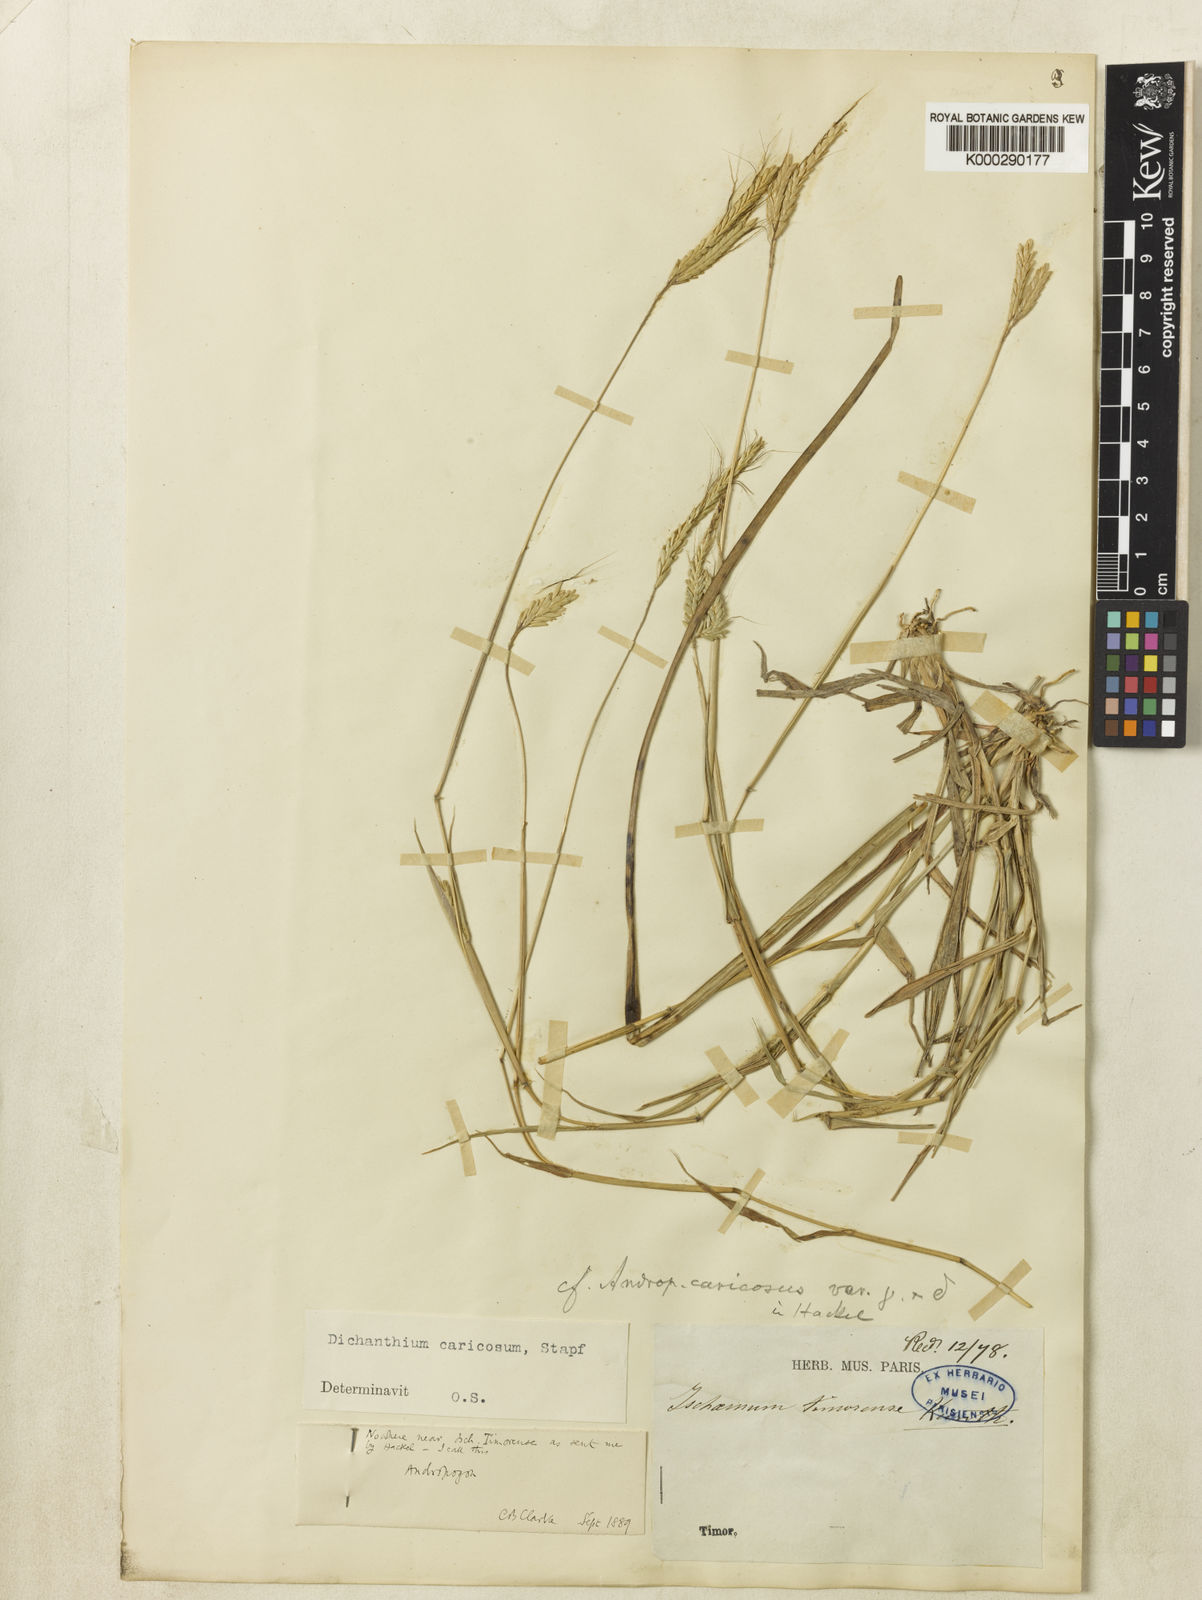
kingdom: Plantae
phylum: Tracheophyta
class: Liliopsida
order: Poales
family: Poaceae
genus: Dichanthium
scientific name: Dichanthium aristatum
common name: Angleton bluestem
